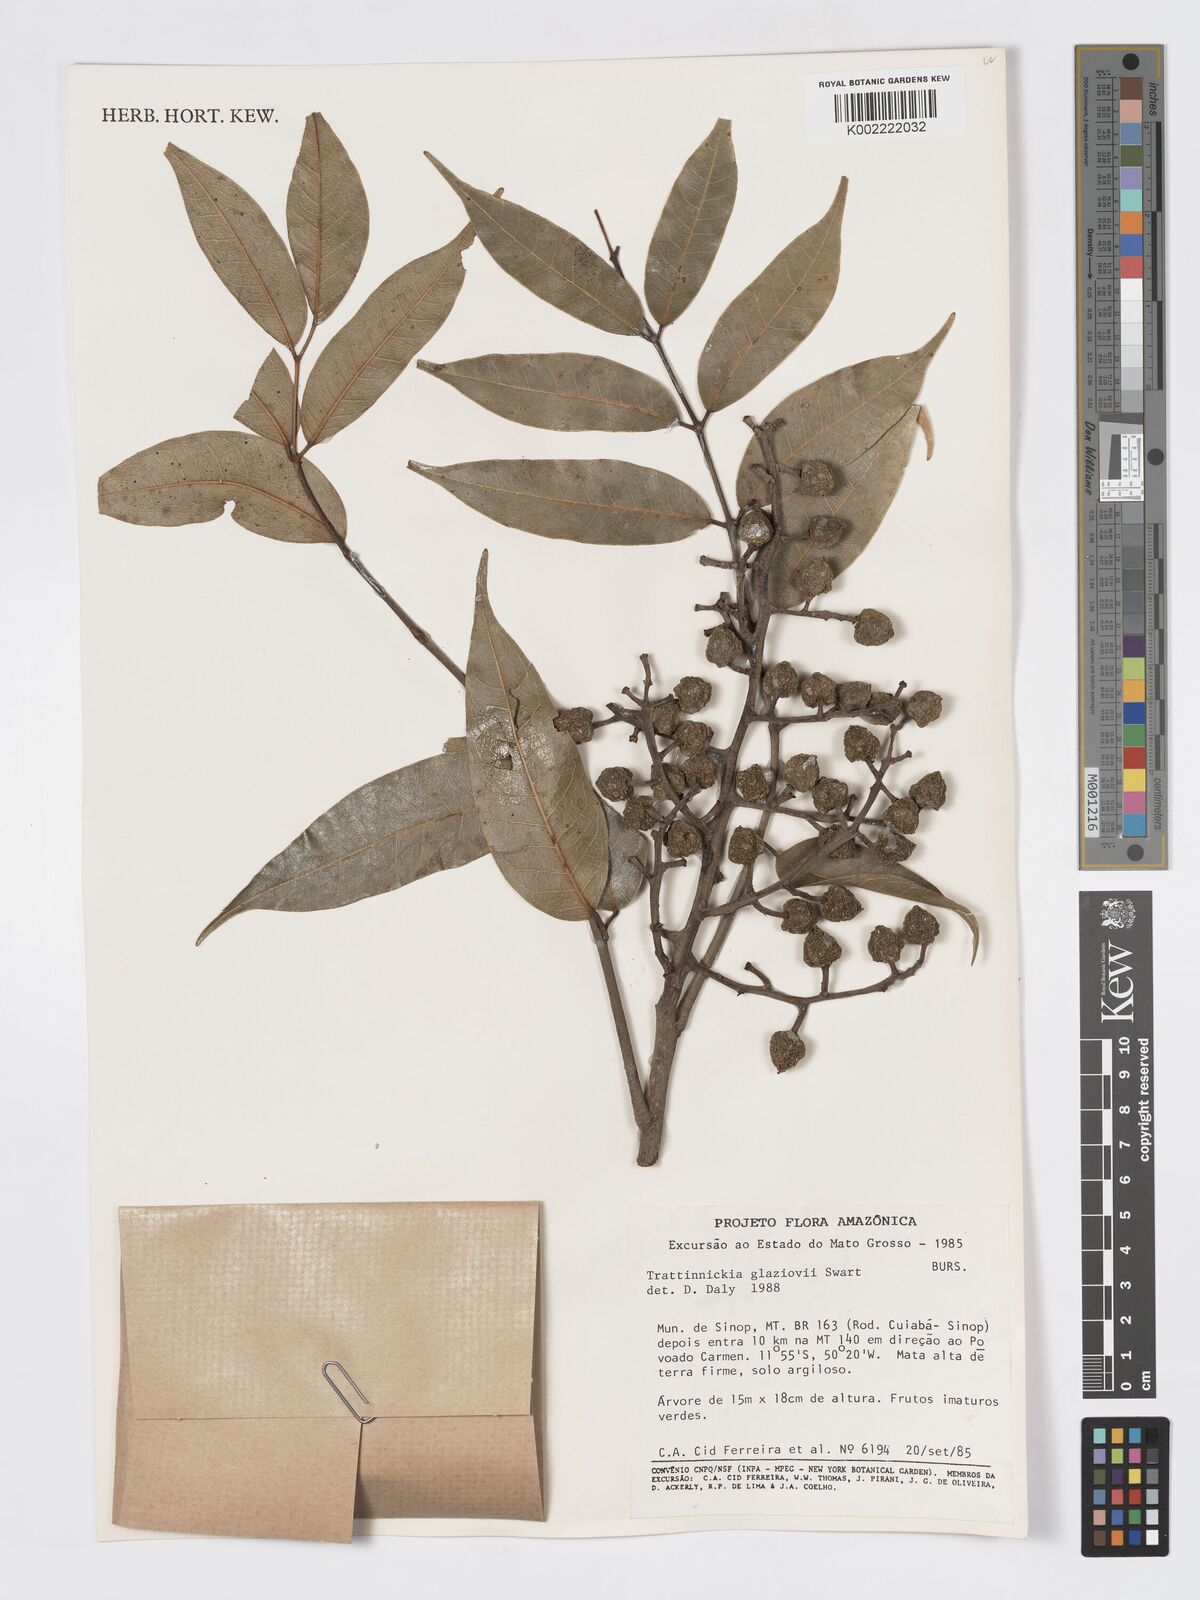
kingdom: Plantae
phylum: Tracheophyta
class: Magnoliopsida
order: Sapindales
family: Burseraceae
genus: Trattinnickia
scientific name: Trattinnickia glaziovii
